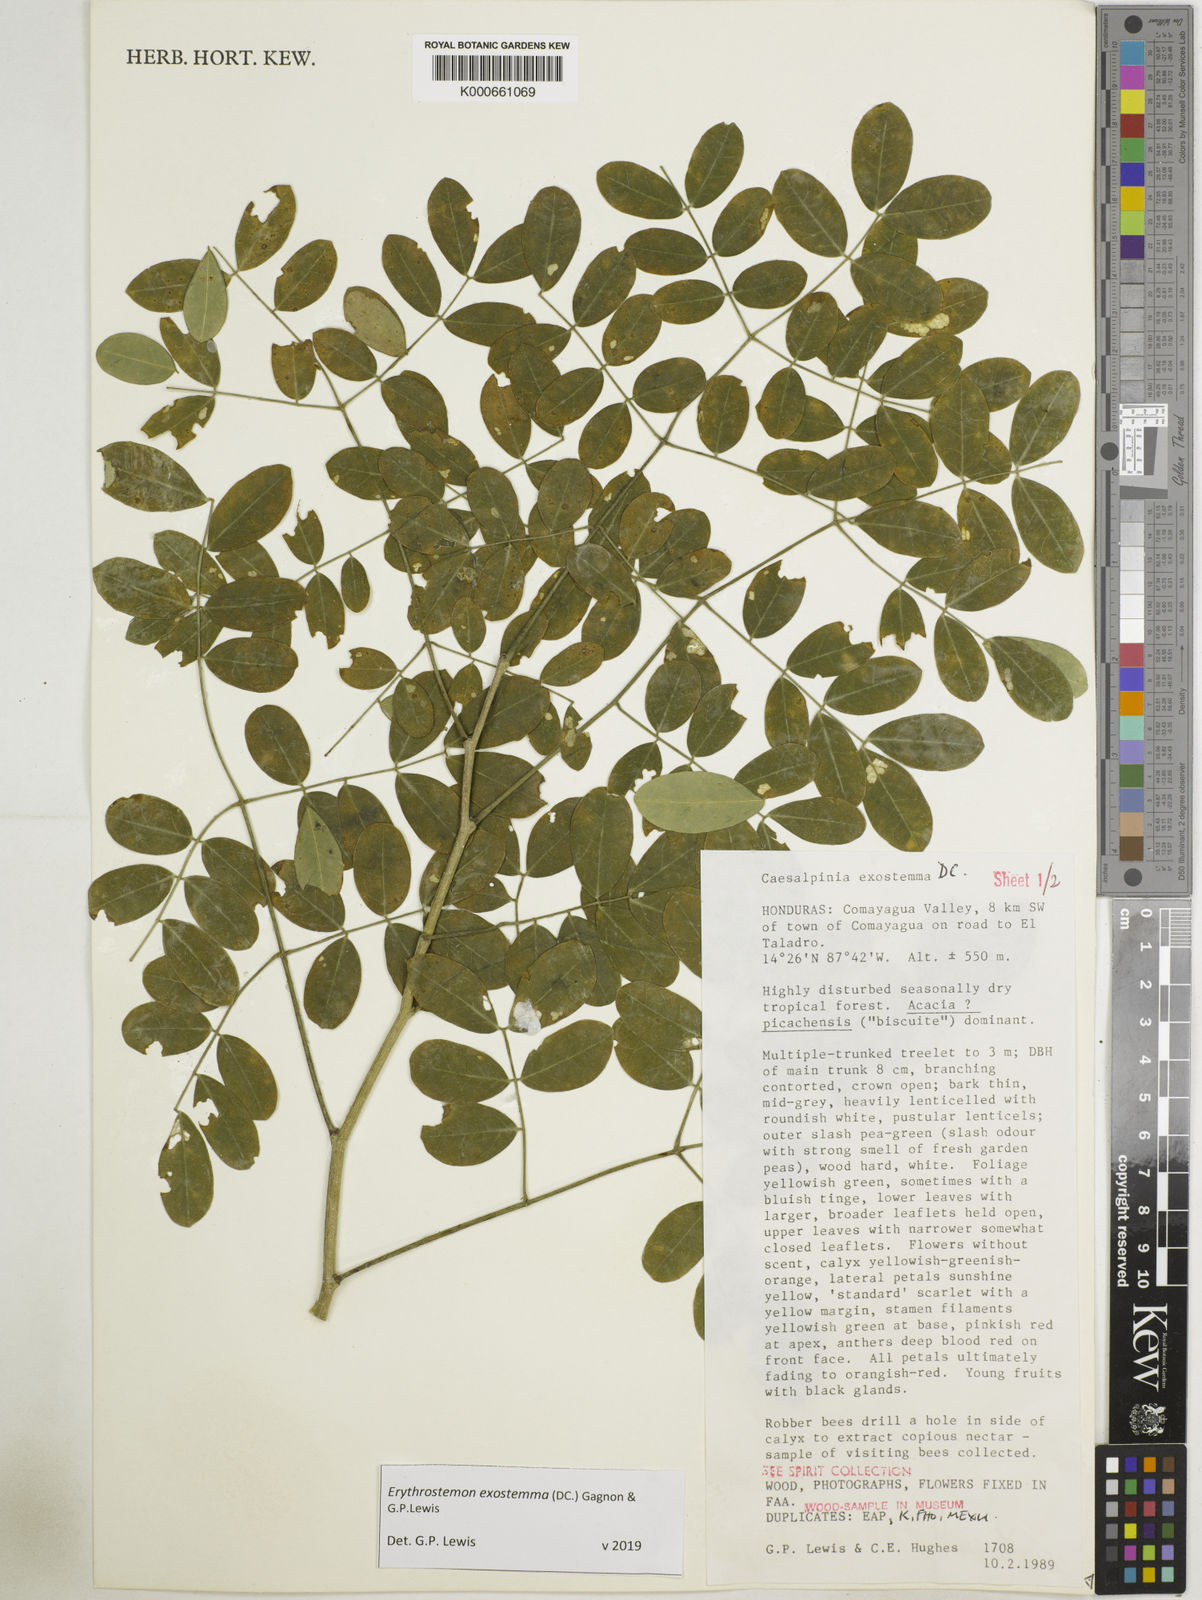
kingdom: Plantae
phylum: Tracheophyta
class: Magnoliopsida
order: Fabales
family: Fabaceae
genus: Erythrostemon
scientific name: Erythrostemon exostemma
